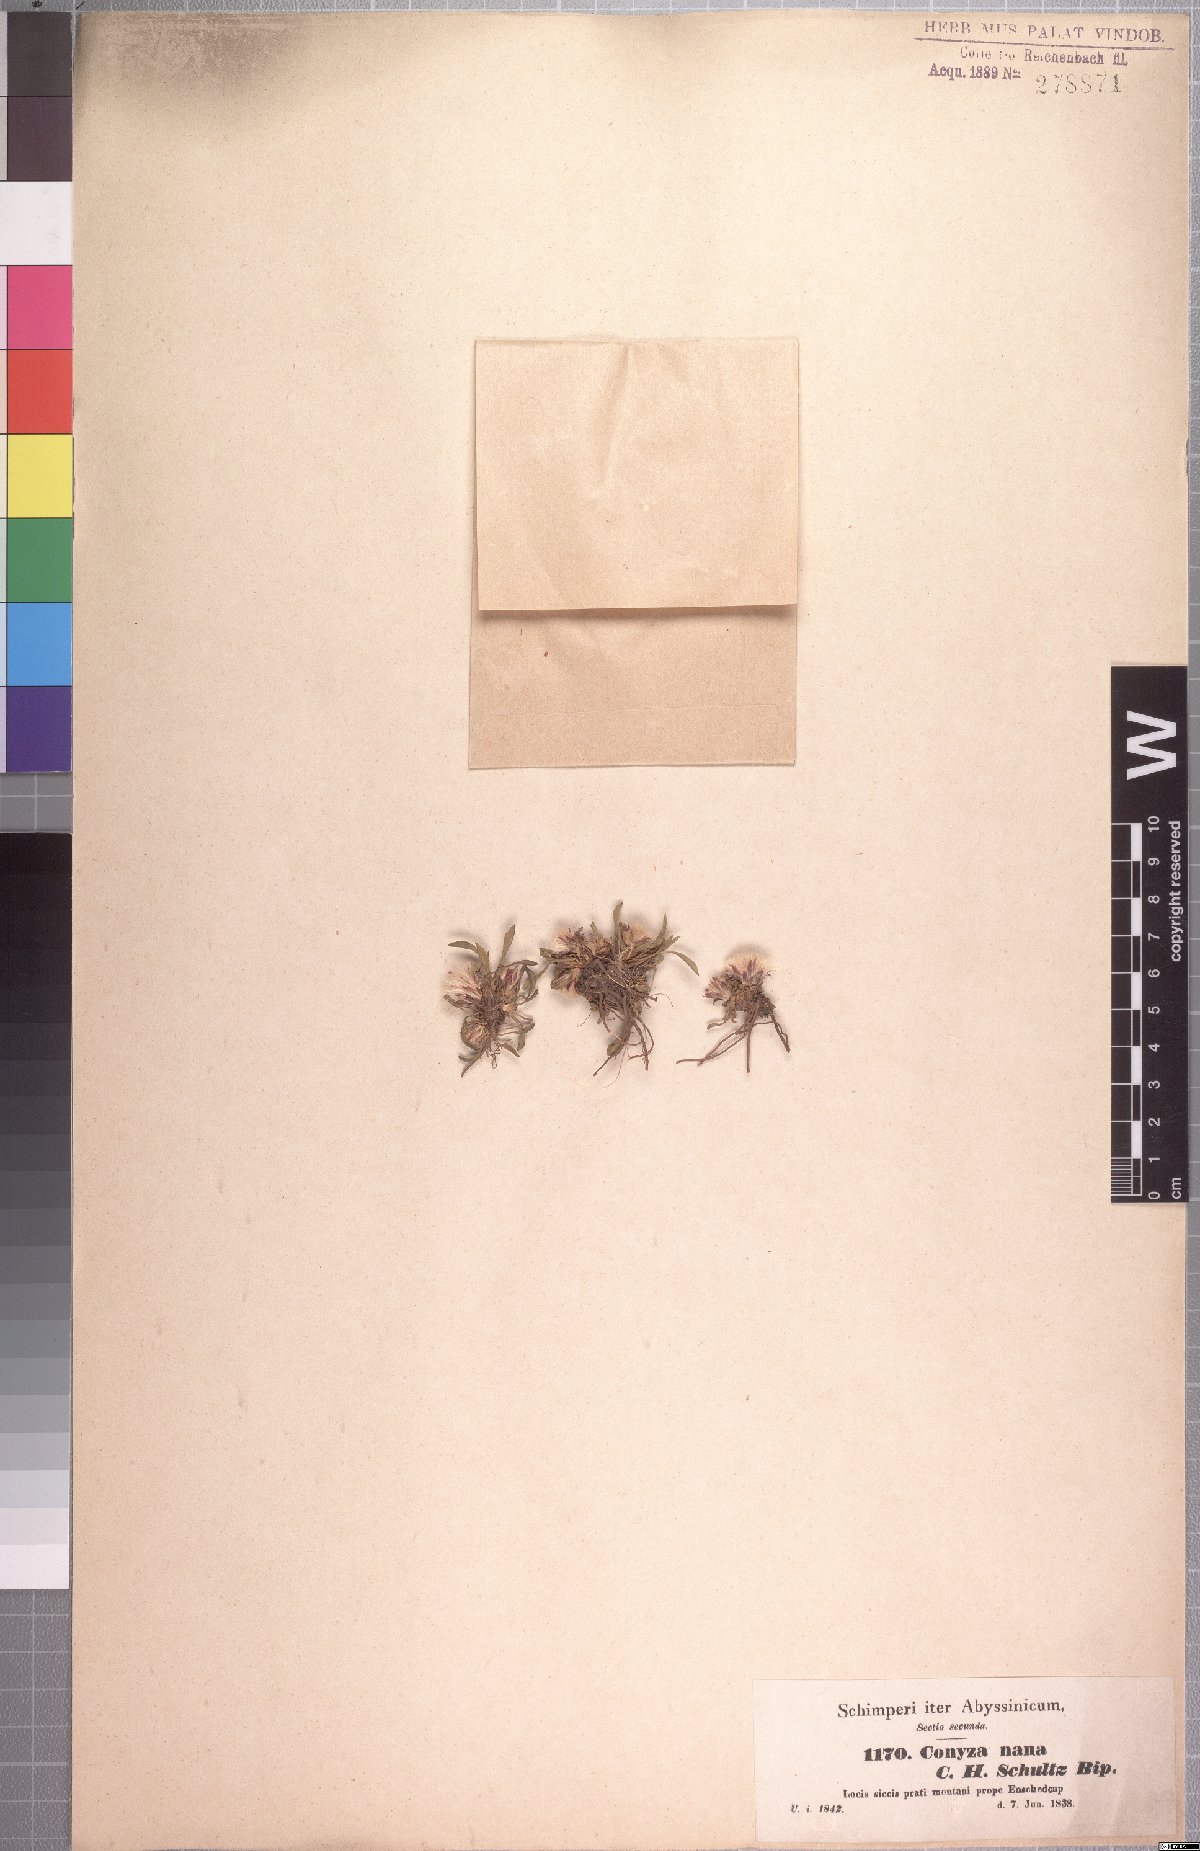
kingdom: Plantae
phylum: Tracheophyta
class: Magnoliopsida
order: Asterales
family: Asteraceae
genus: Conyza
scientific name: Conyza nana
